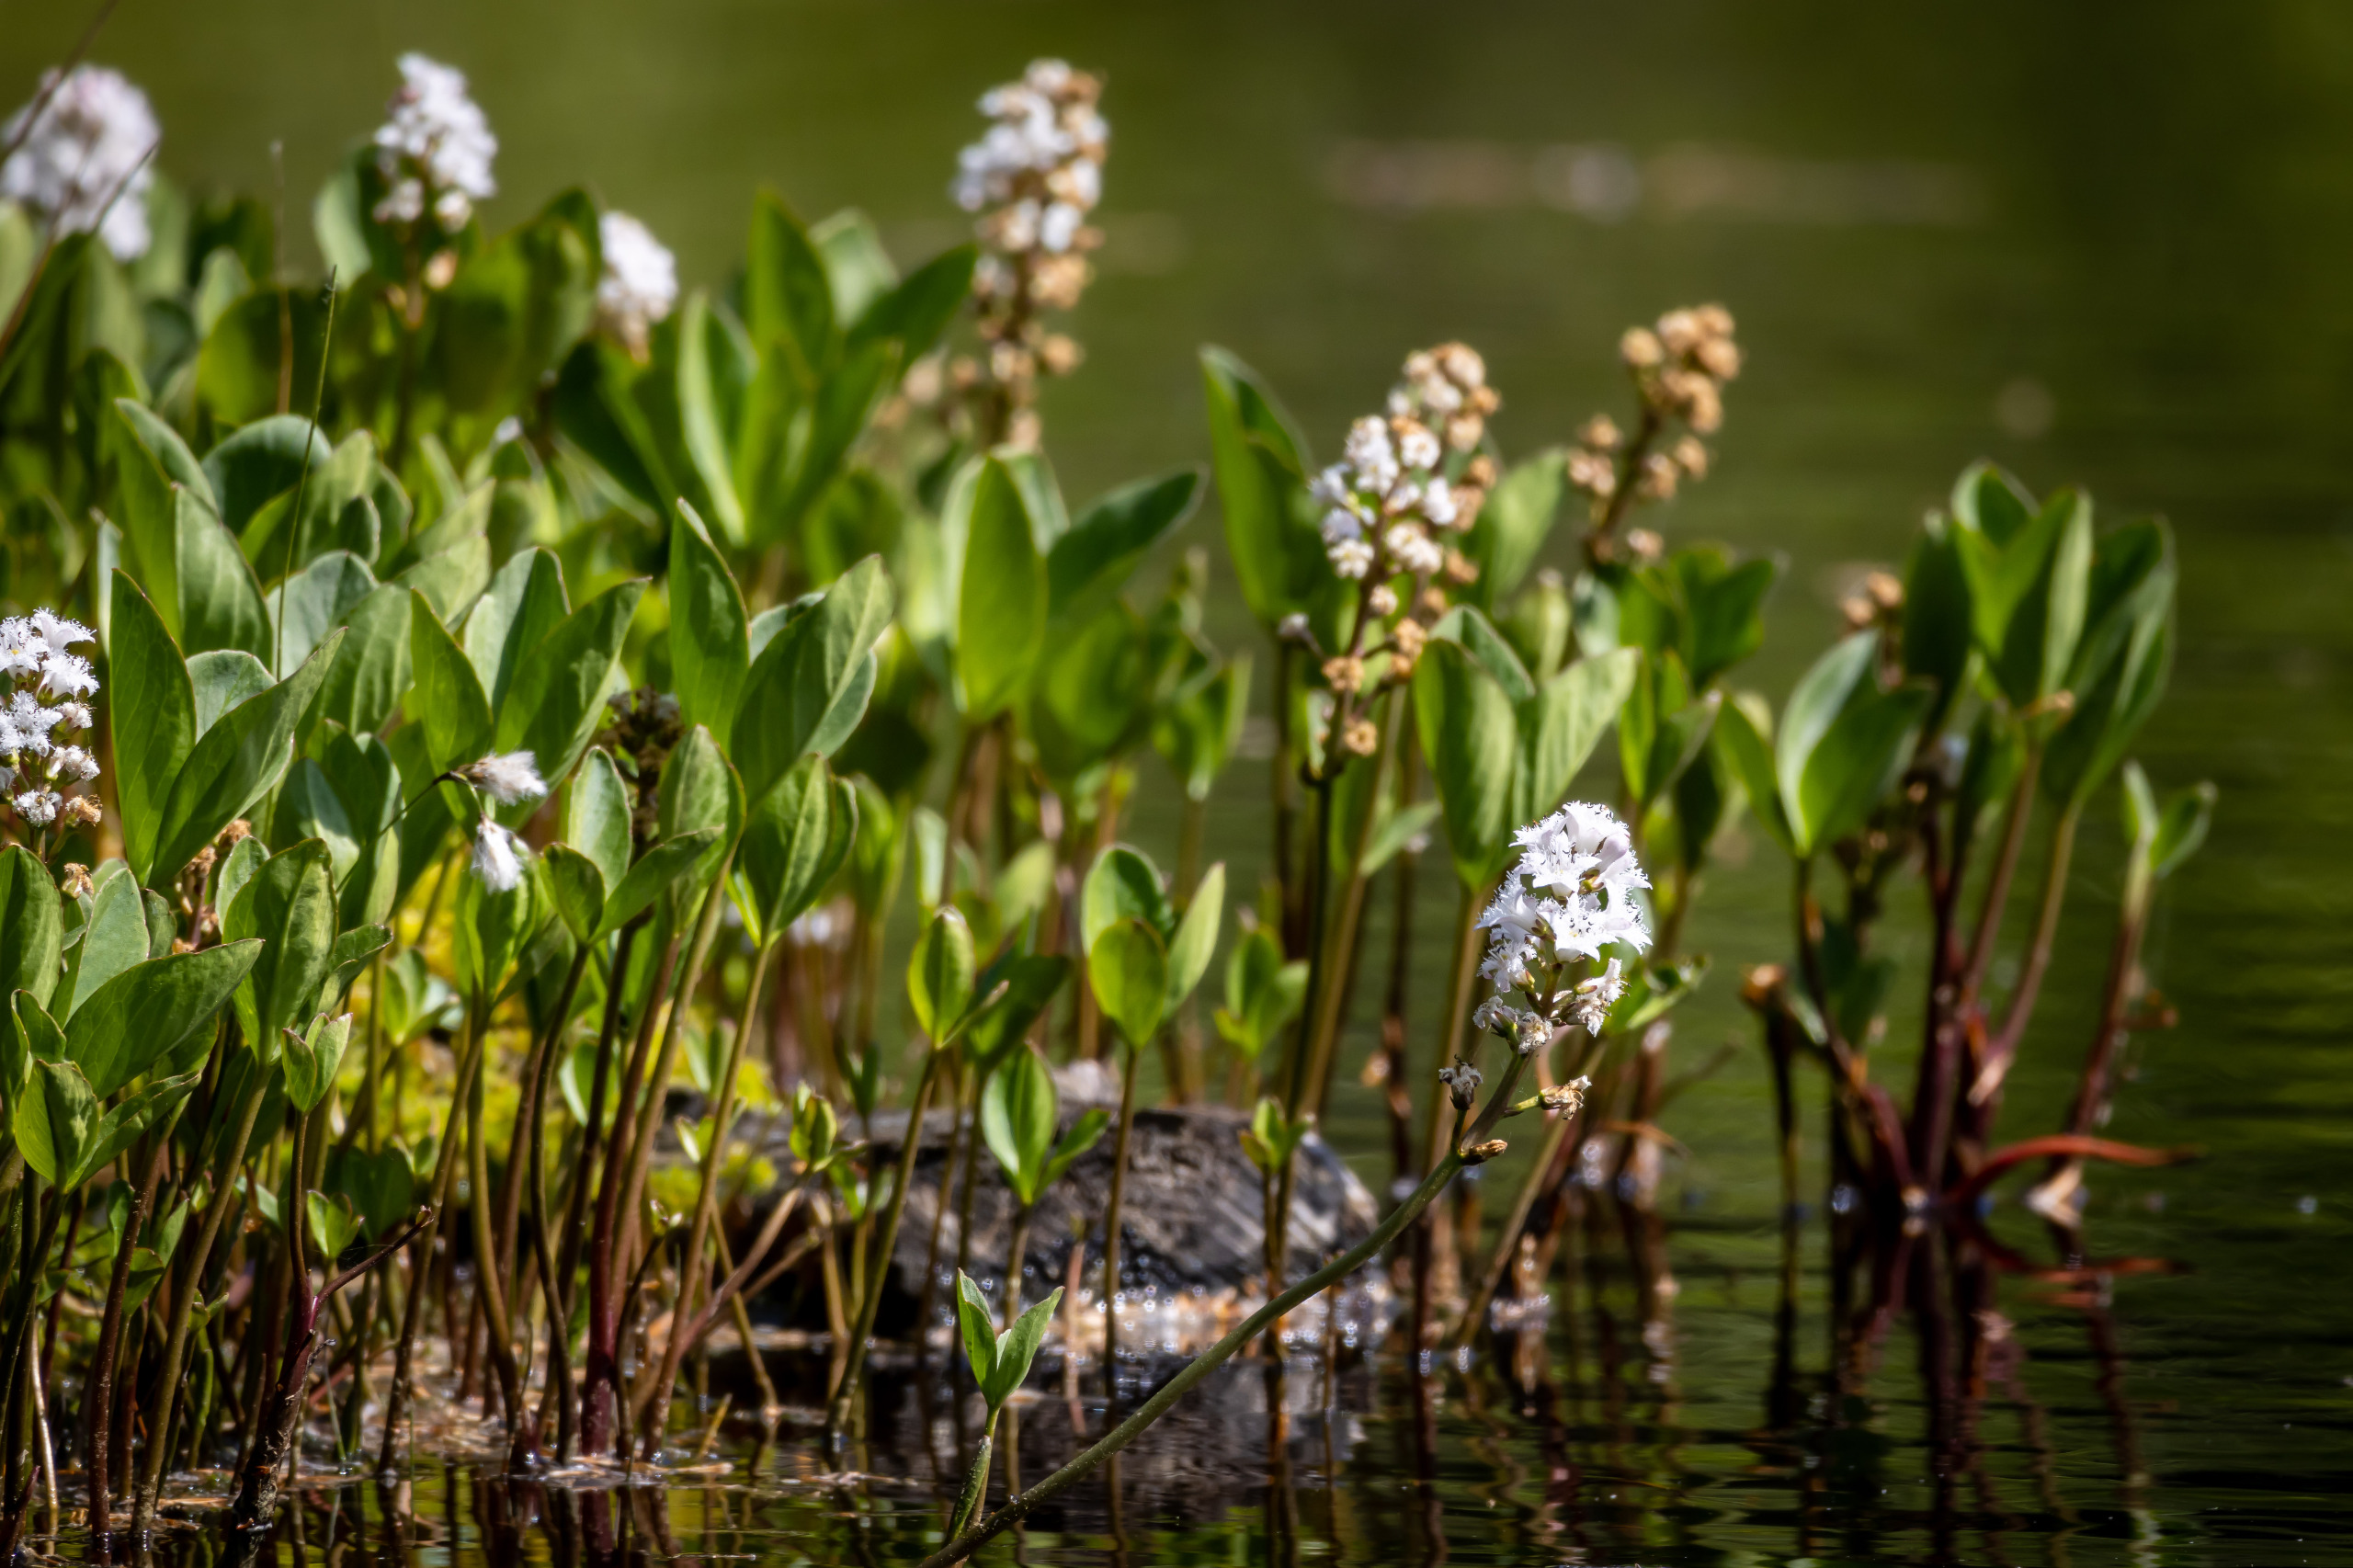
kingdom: Plantae
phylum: Tracheophyta
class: Magnoliopsida
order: Asterales
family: Menyanthaceae
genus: Menyanthes
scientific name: Menyanthes trifoliata
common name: Bukkeblad
